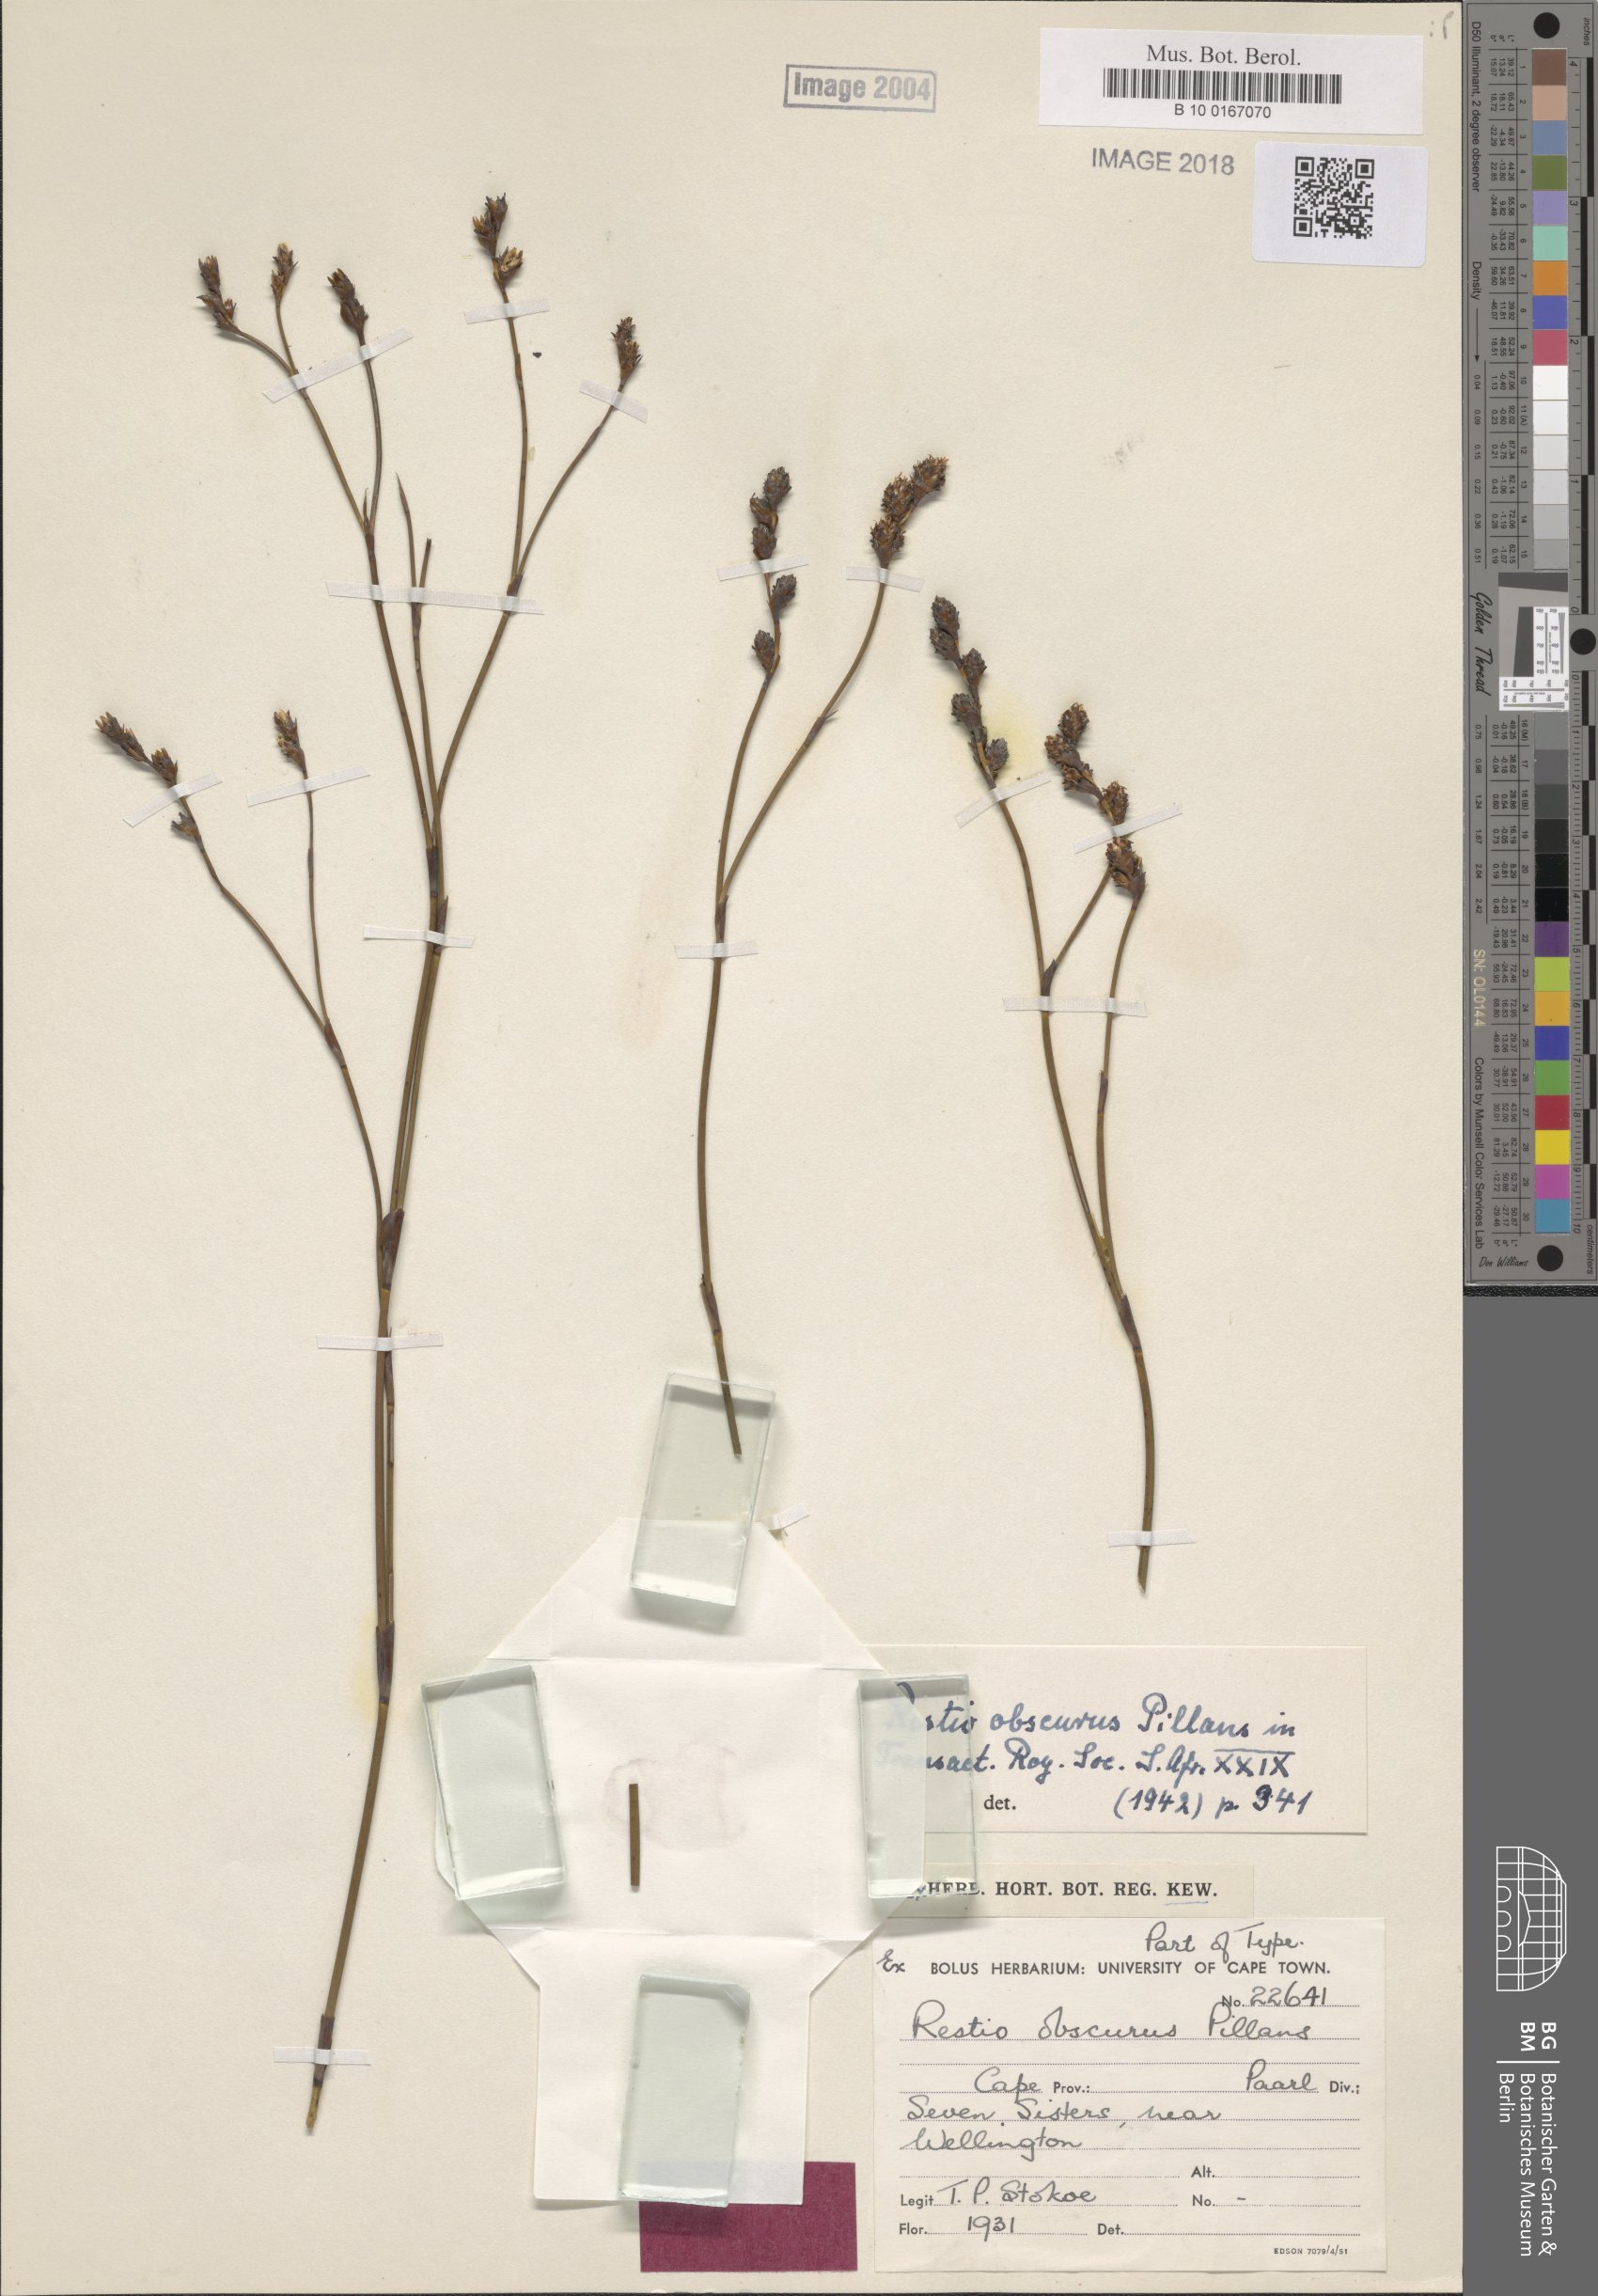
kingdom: Plantae
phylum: Tracheophyta
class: Liliopsida
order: Poales
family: Restionaceae
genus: Restio
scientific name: Restio obscurus
